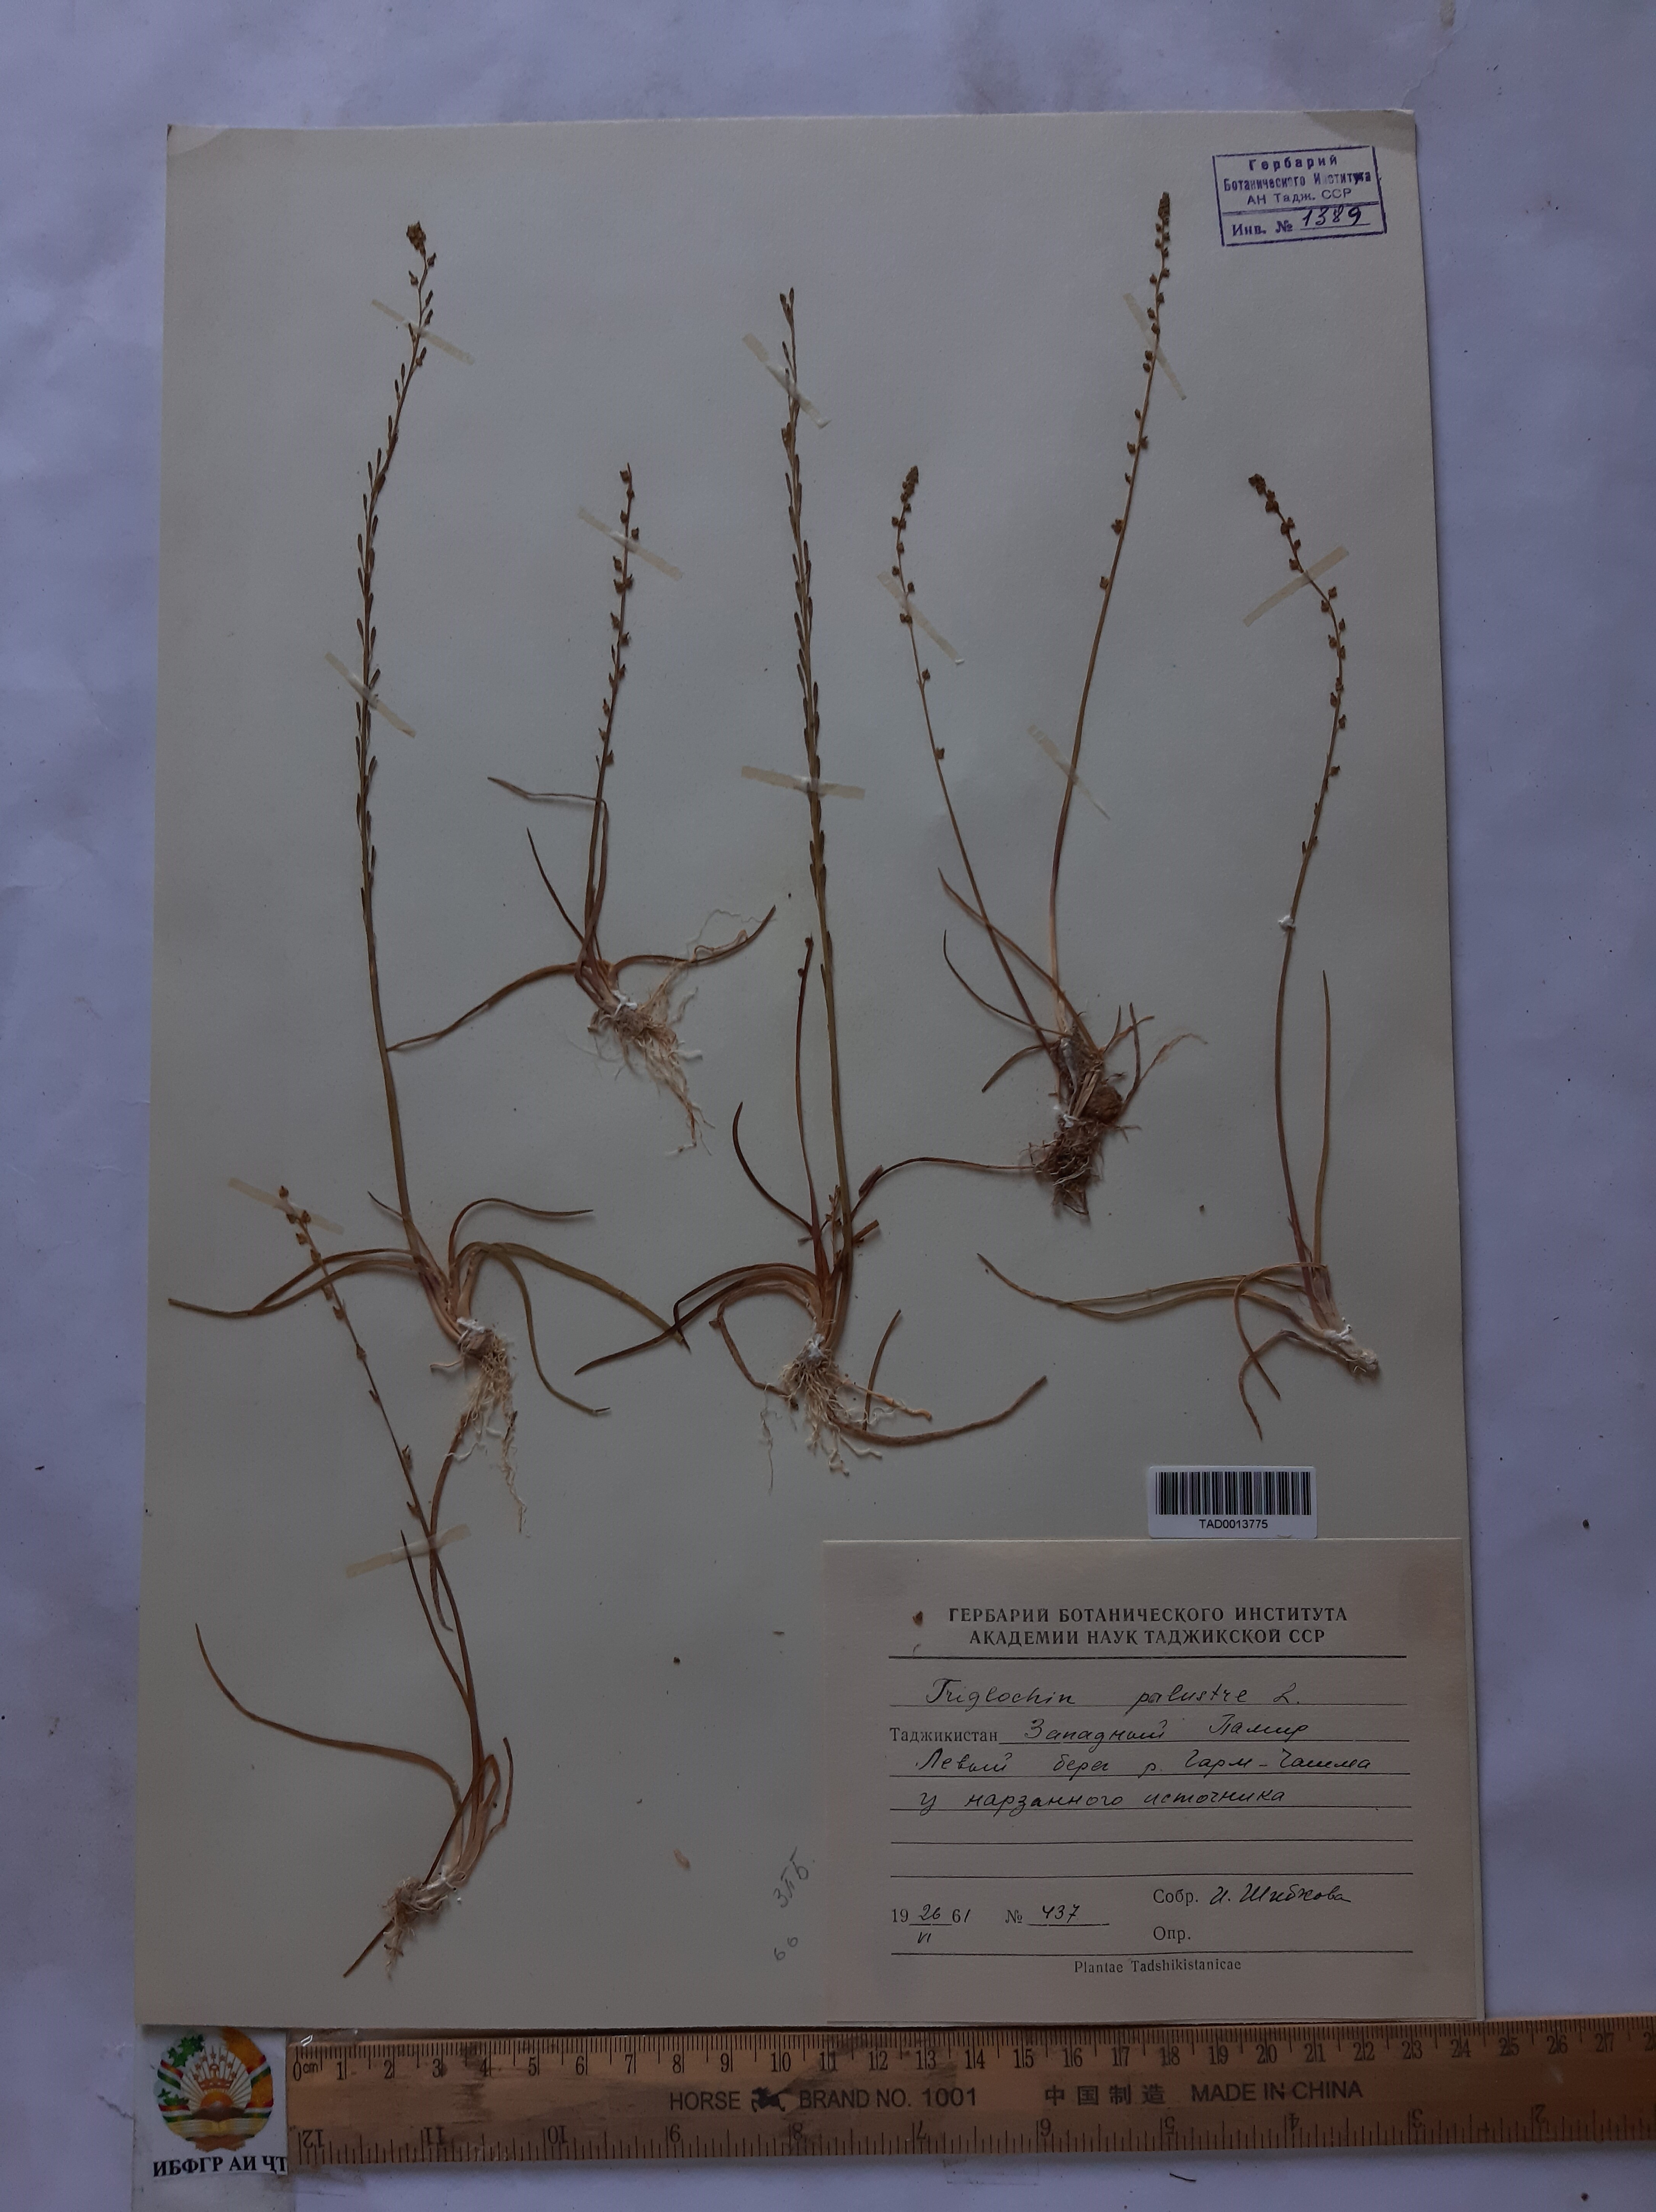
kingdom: Plantae
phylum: Tracheophyta
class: Liliopsida
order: Alismatales
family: Juncaginaceae
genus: Triglochin
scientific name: Triglochin palustris
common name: Marsh arrowgrass
